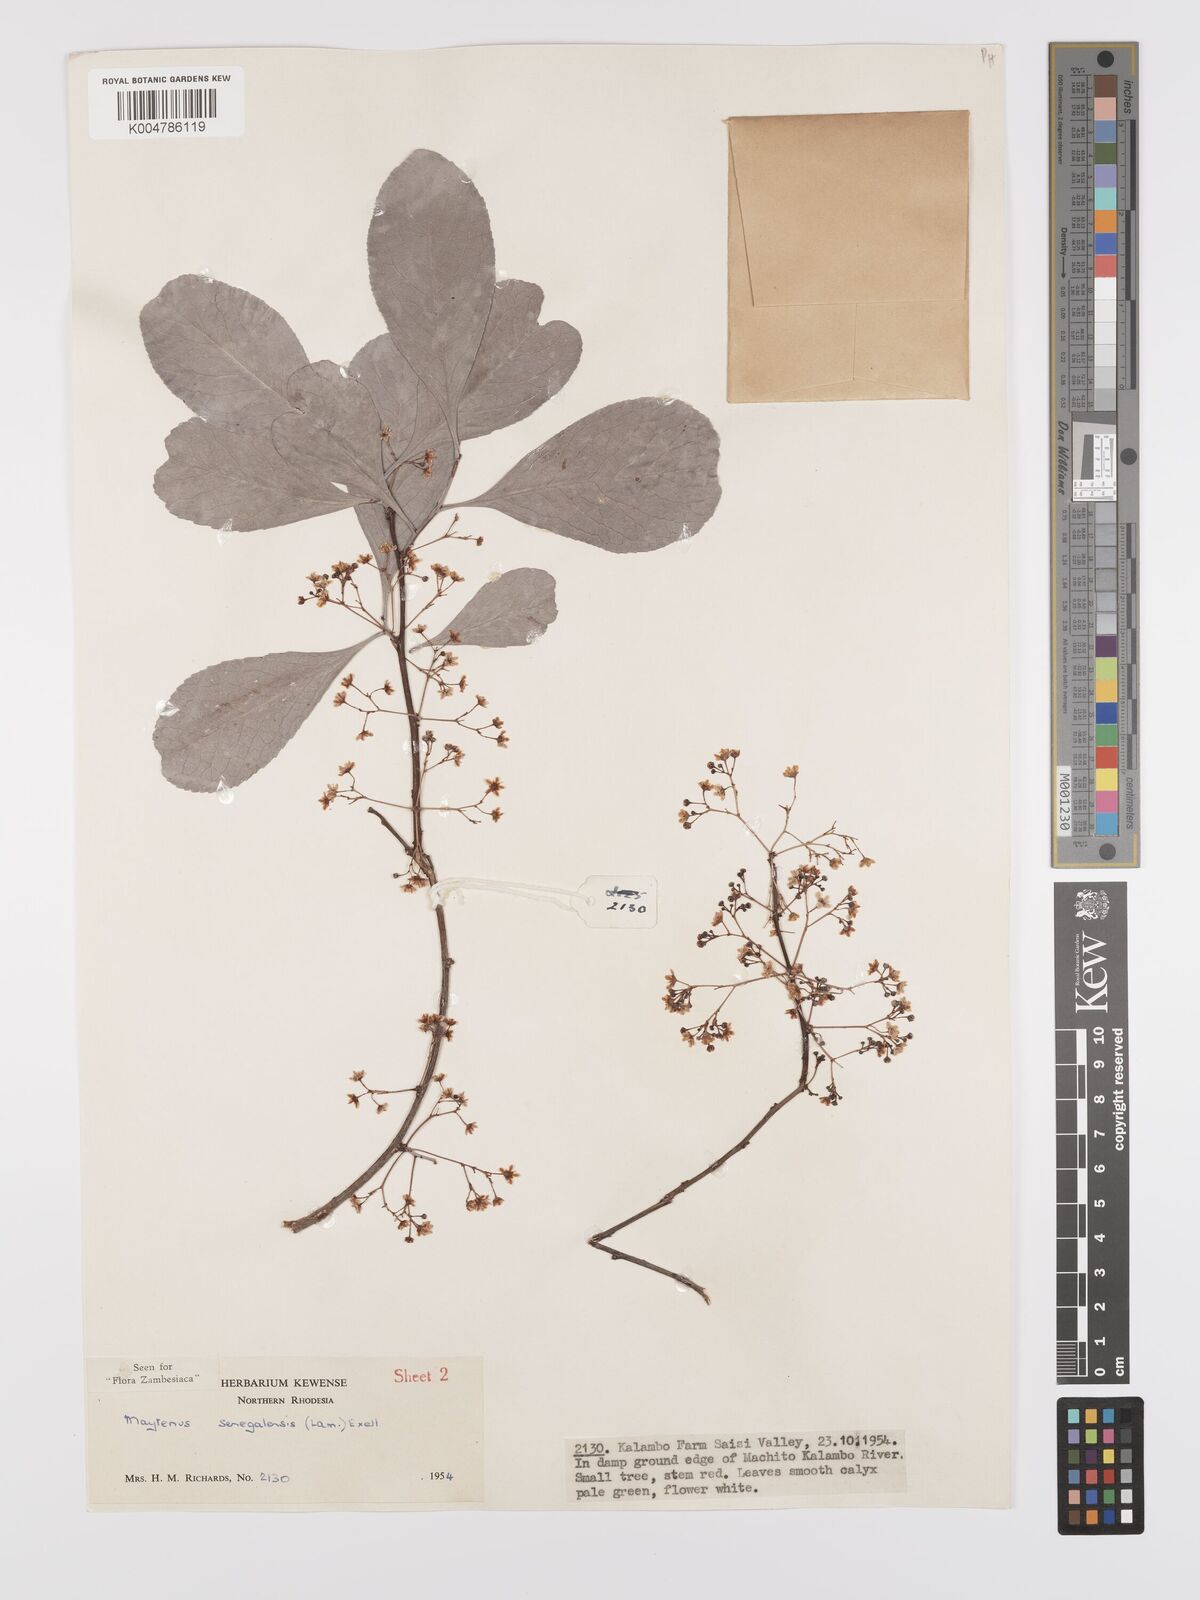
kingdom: Plantae
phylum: Tracheophyta
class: Magnoliopsida
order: Celastrales
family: Celastraceae
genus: Gymnosporia
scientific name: Gymnosporia senegalensis
